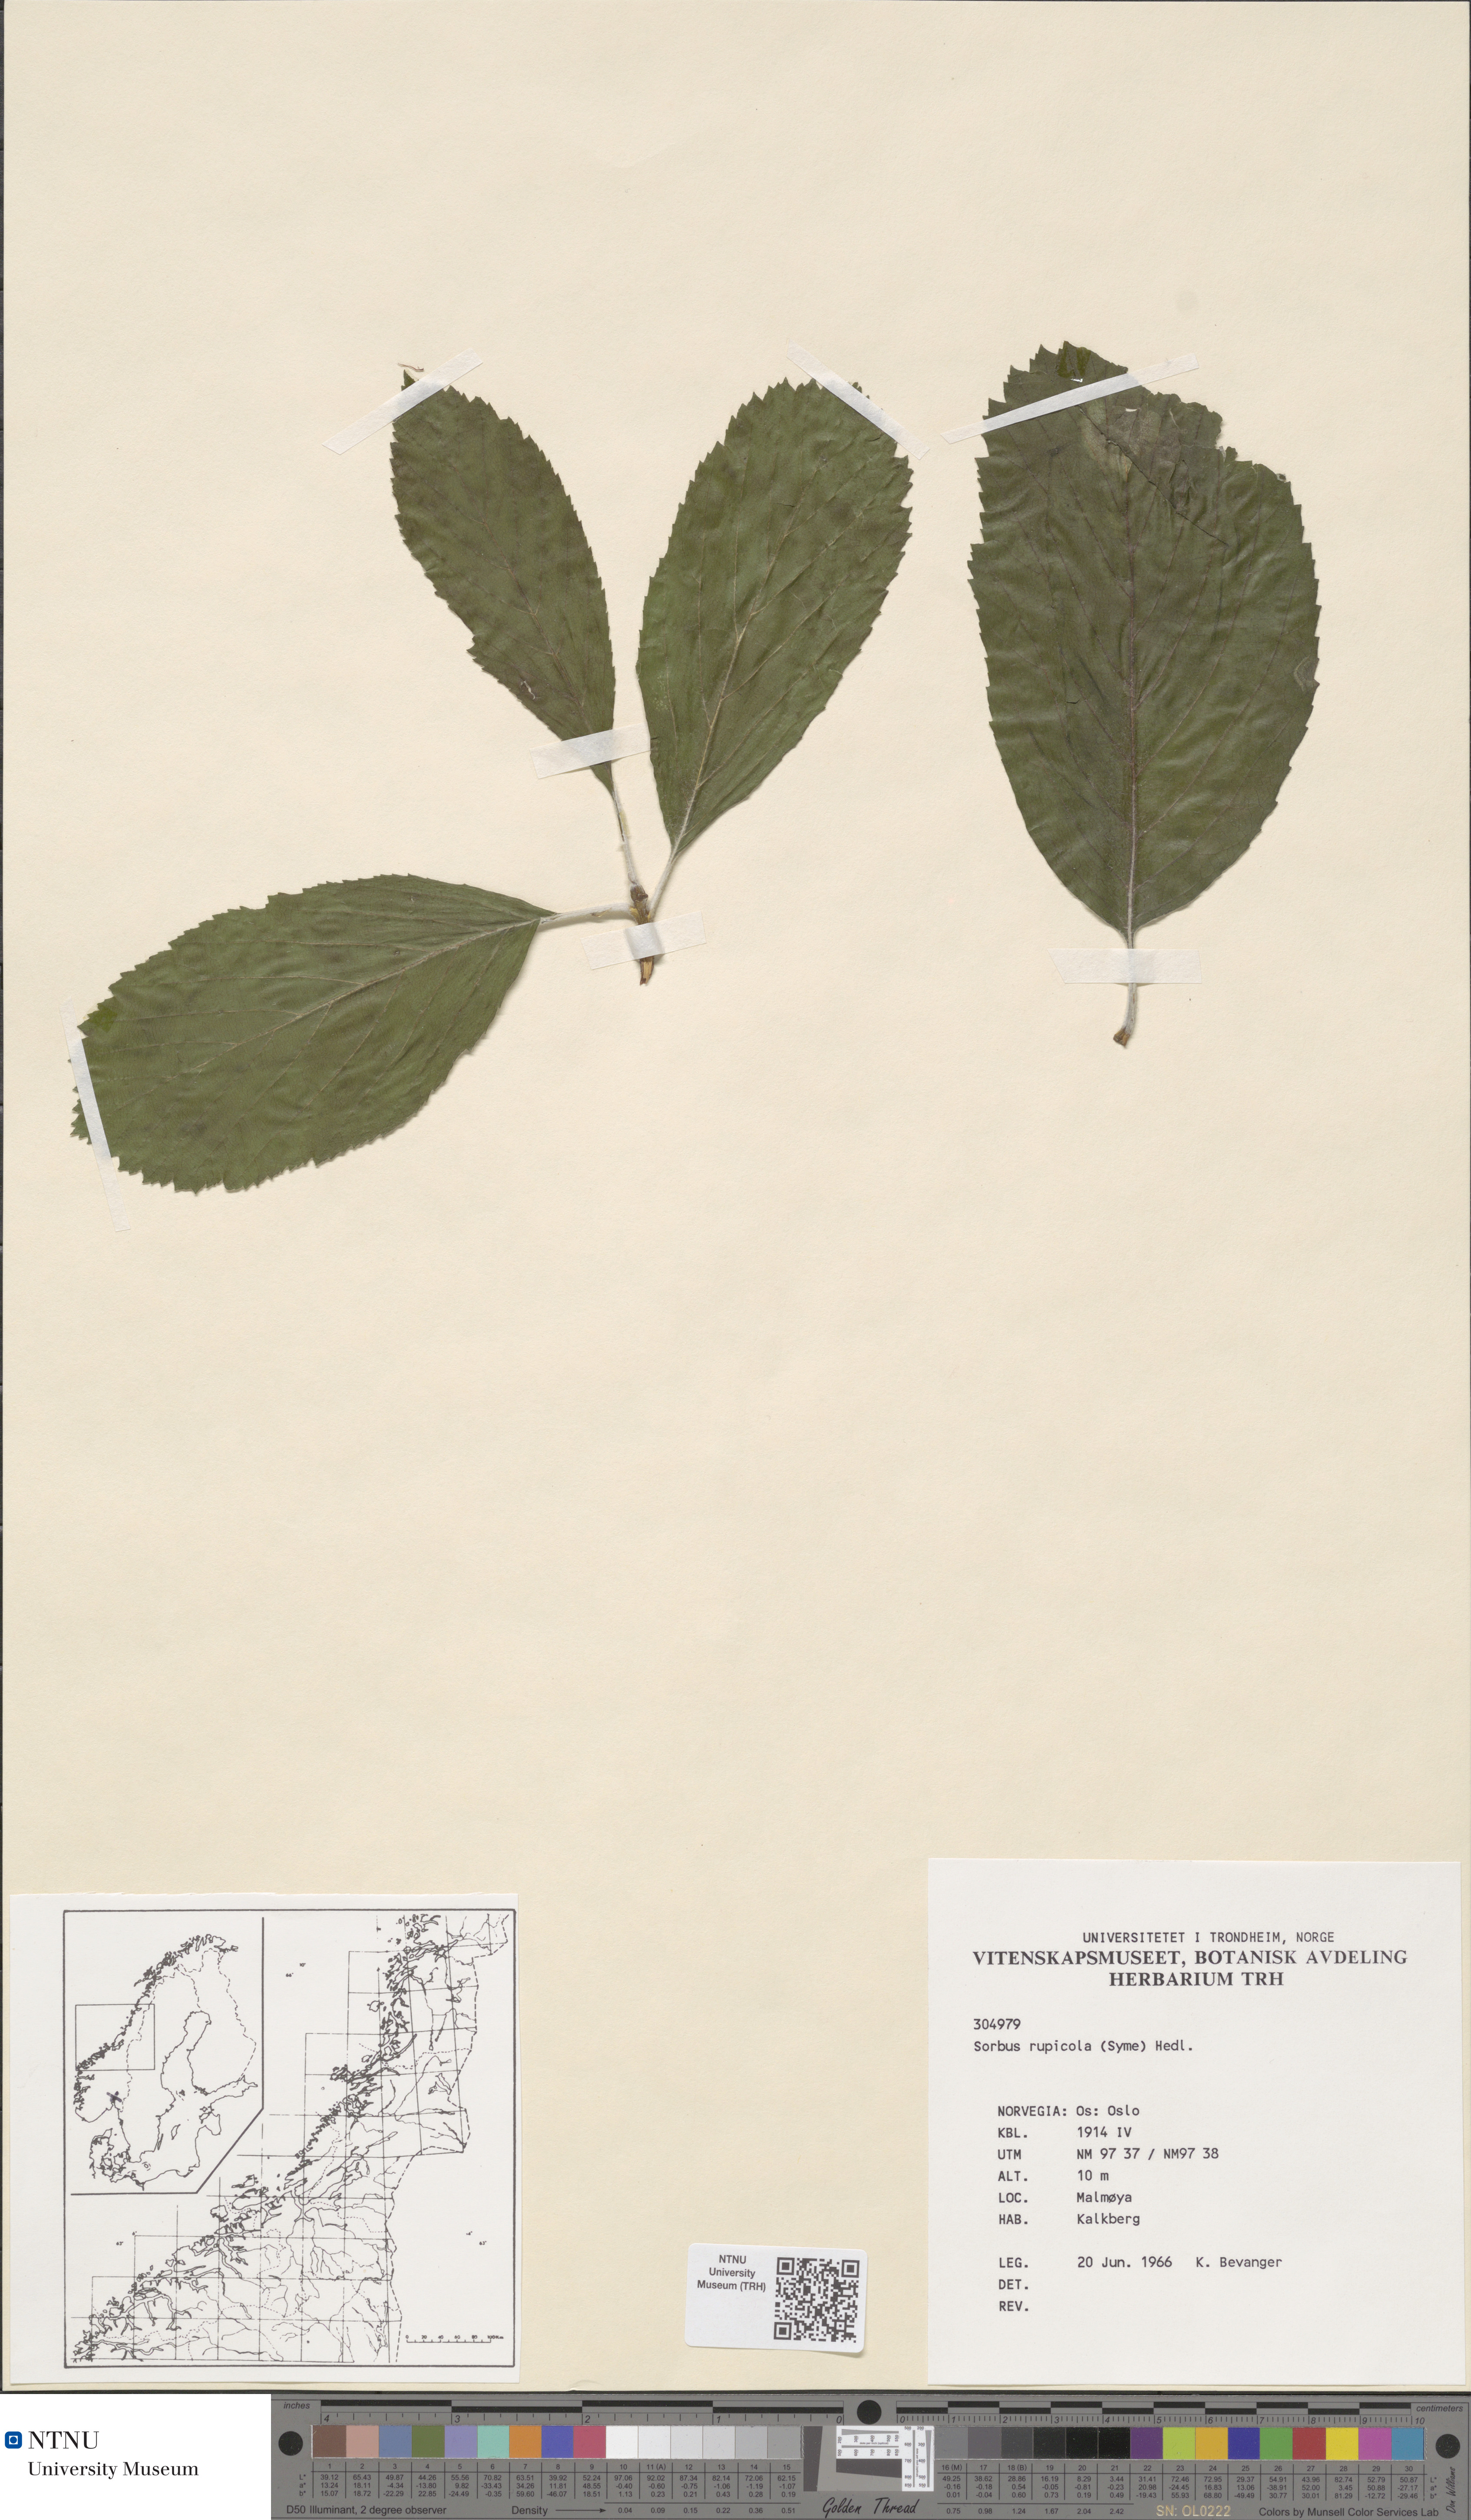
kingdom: Plantae
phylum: Tracheophyta
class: Magnoliopsida
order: Rosales
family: Rosaceae
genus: Aria
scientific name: Aria rupicola
